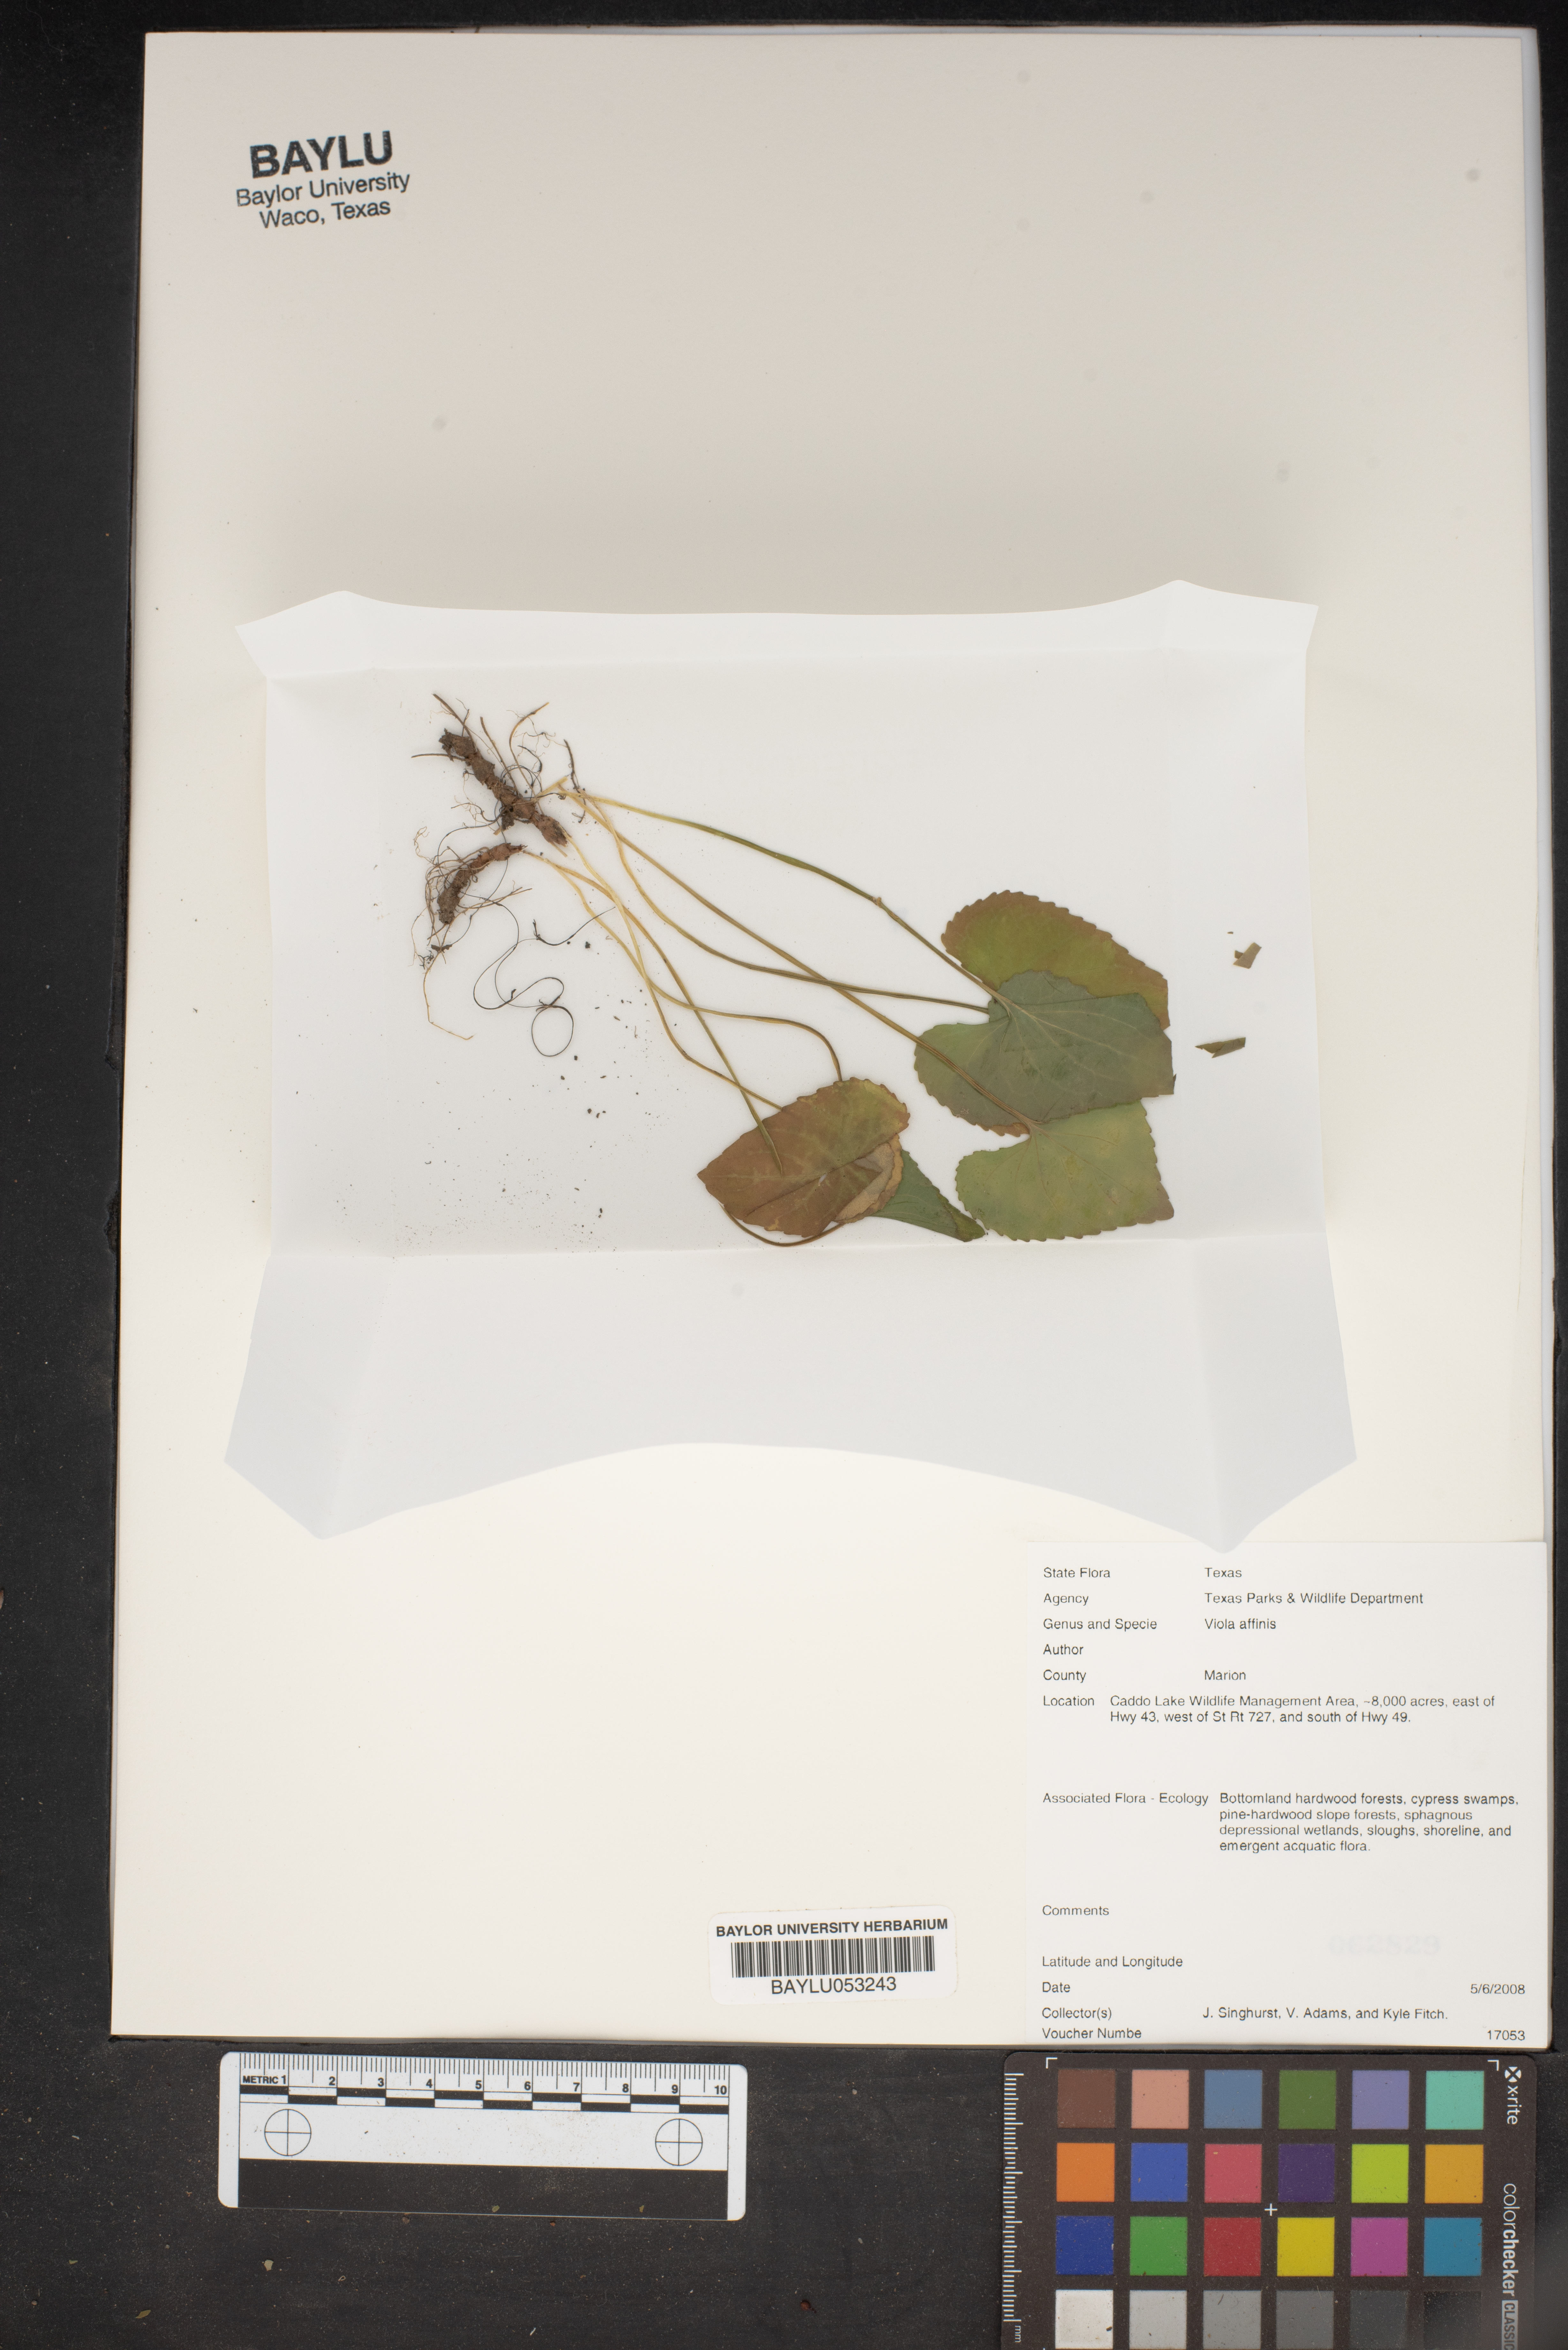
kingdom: Plantae
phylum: Tracheophyta
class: Magnoliopsida
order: Malpighiales
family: Violaceae
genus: Viola
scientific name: Viola affinis
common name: Leconte's violet
